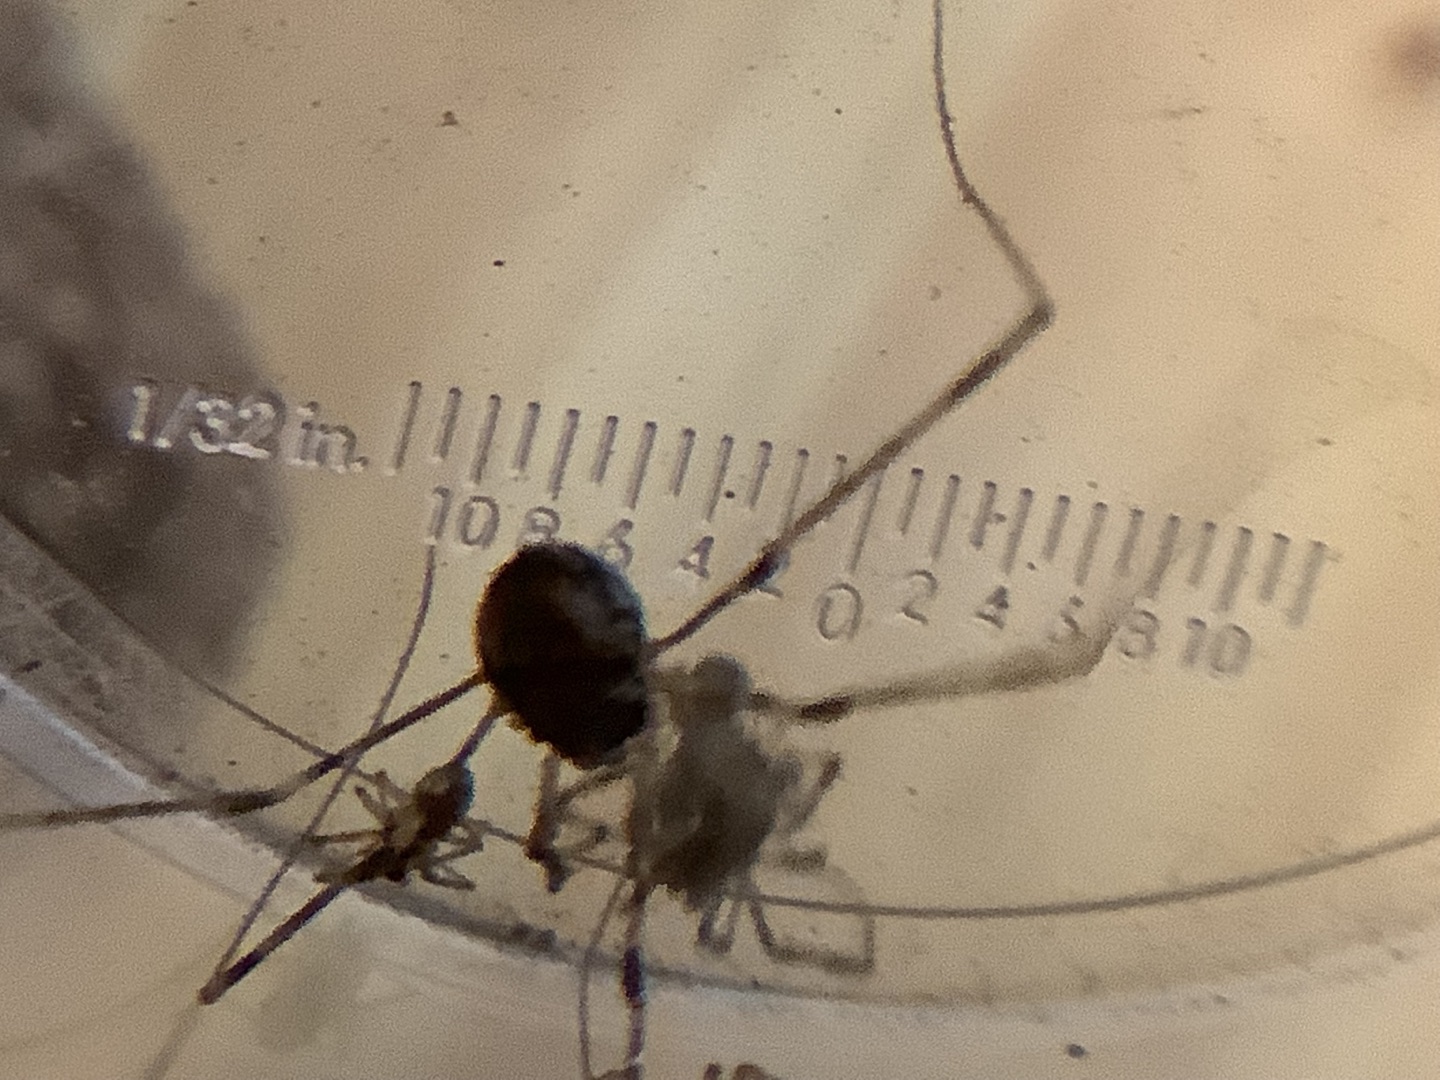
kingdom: Animalia
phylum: Arthropoda
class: Arachnida
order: Opiliones
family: Phalangiidae
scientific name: Phalangiidae
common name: Stormejere
